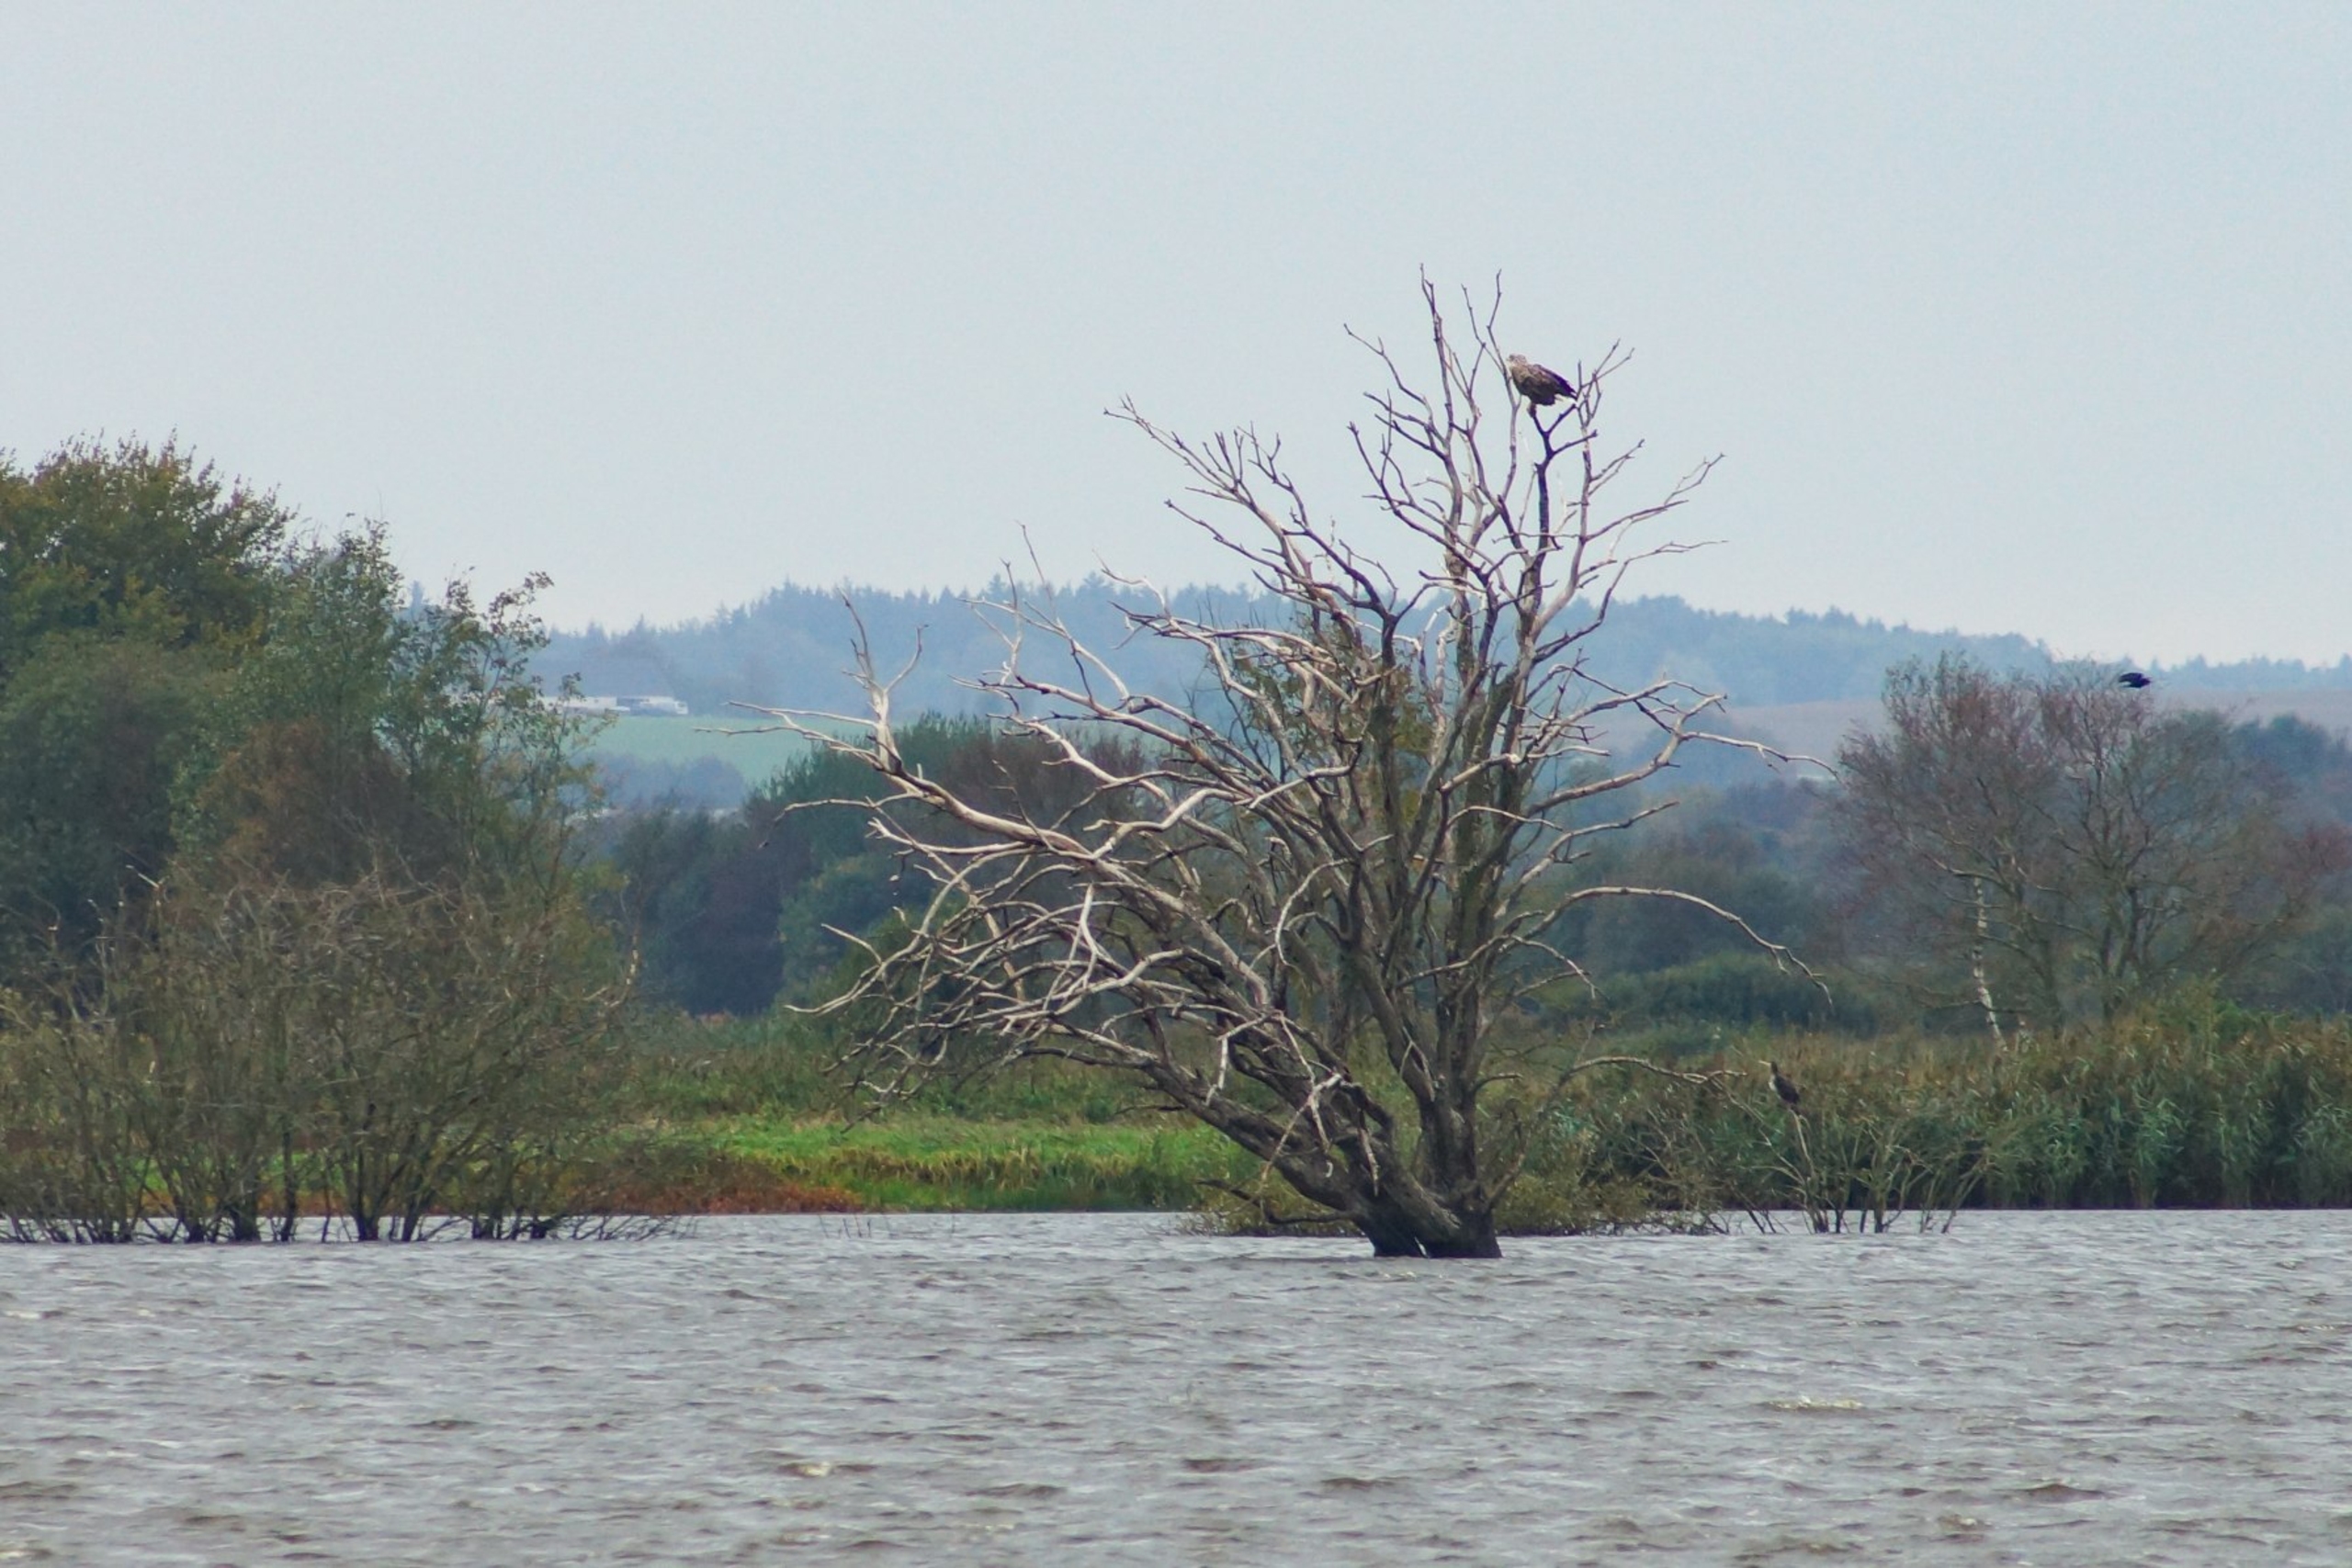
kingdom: Animalia
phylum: Chordata
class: Aves
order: Accipitriformes
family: Accipitridae
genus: Haliaeetus
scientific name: Haliaeetus albicilla
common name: Havørn
